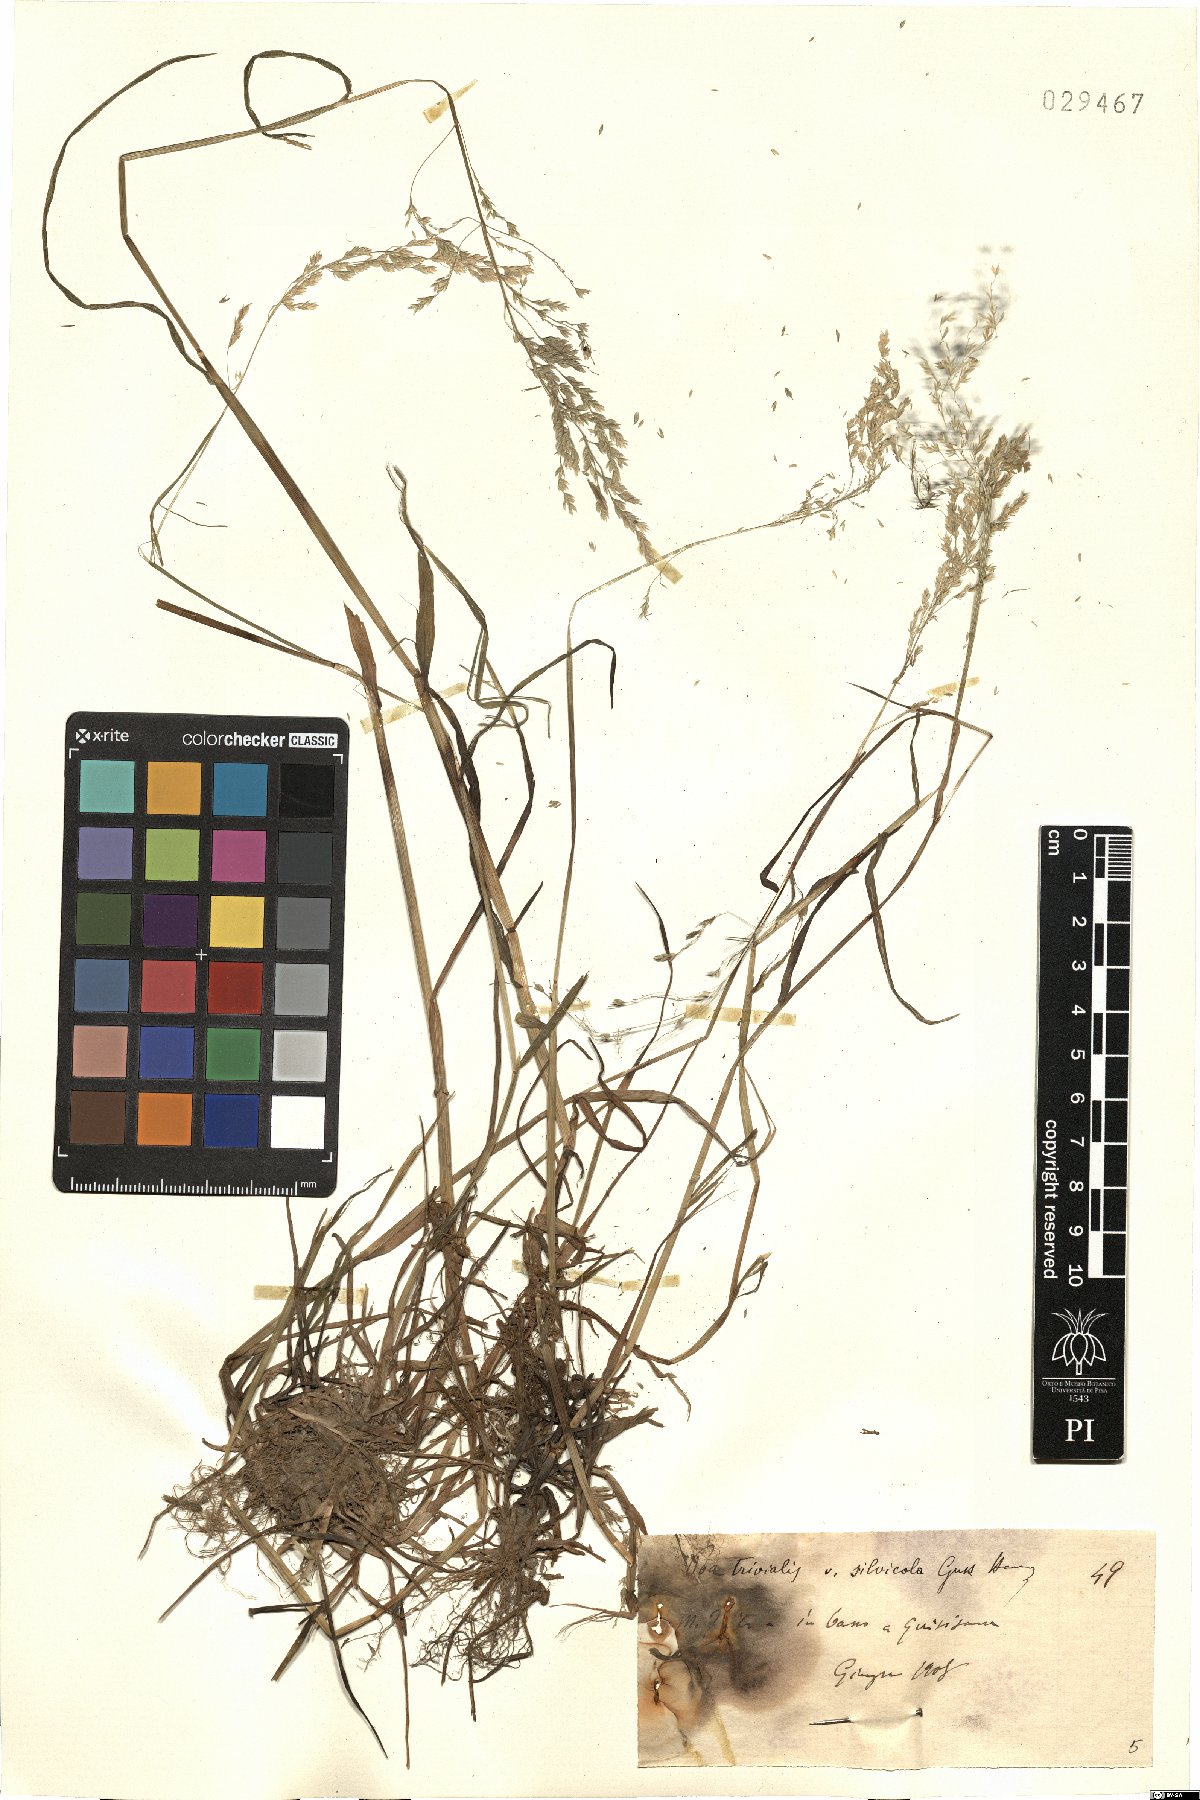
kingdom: Plantae
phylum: Tracheophyta
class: Liliopsida
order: Poales
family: Poaceae
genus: Poa
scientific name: Poa trivialis
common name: Rough bluegrass
